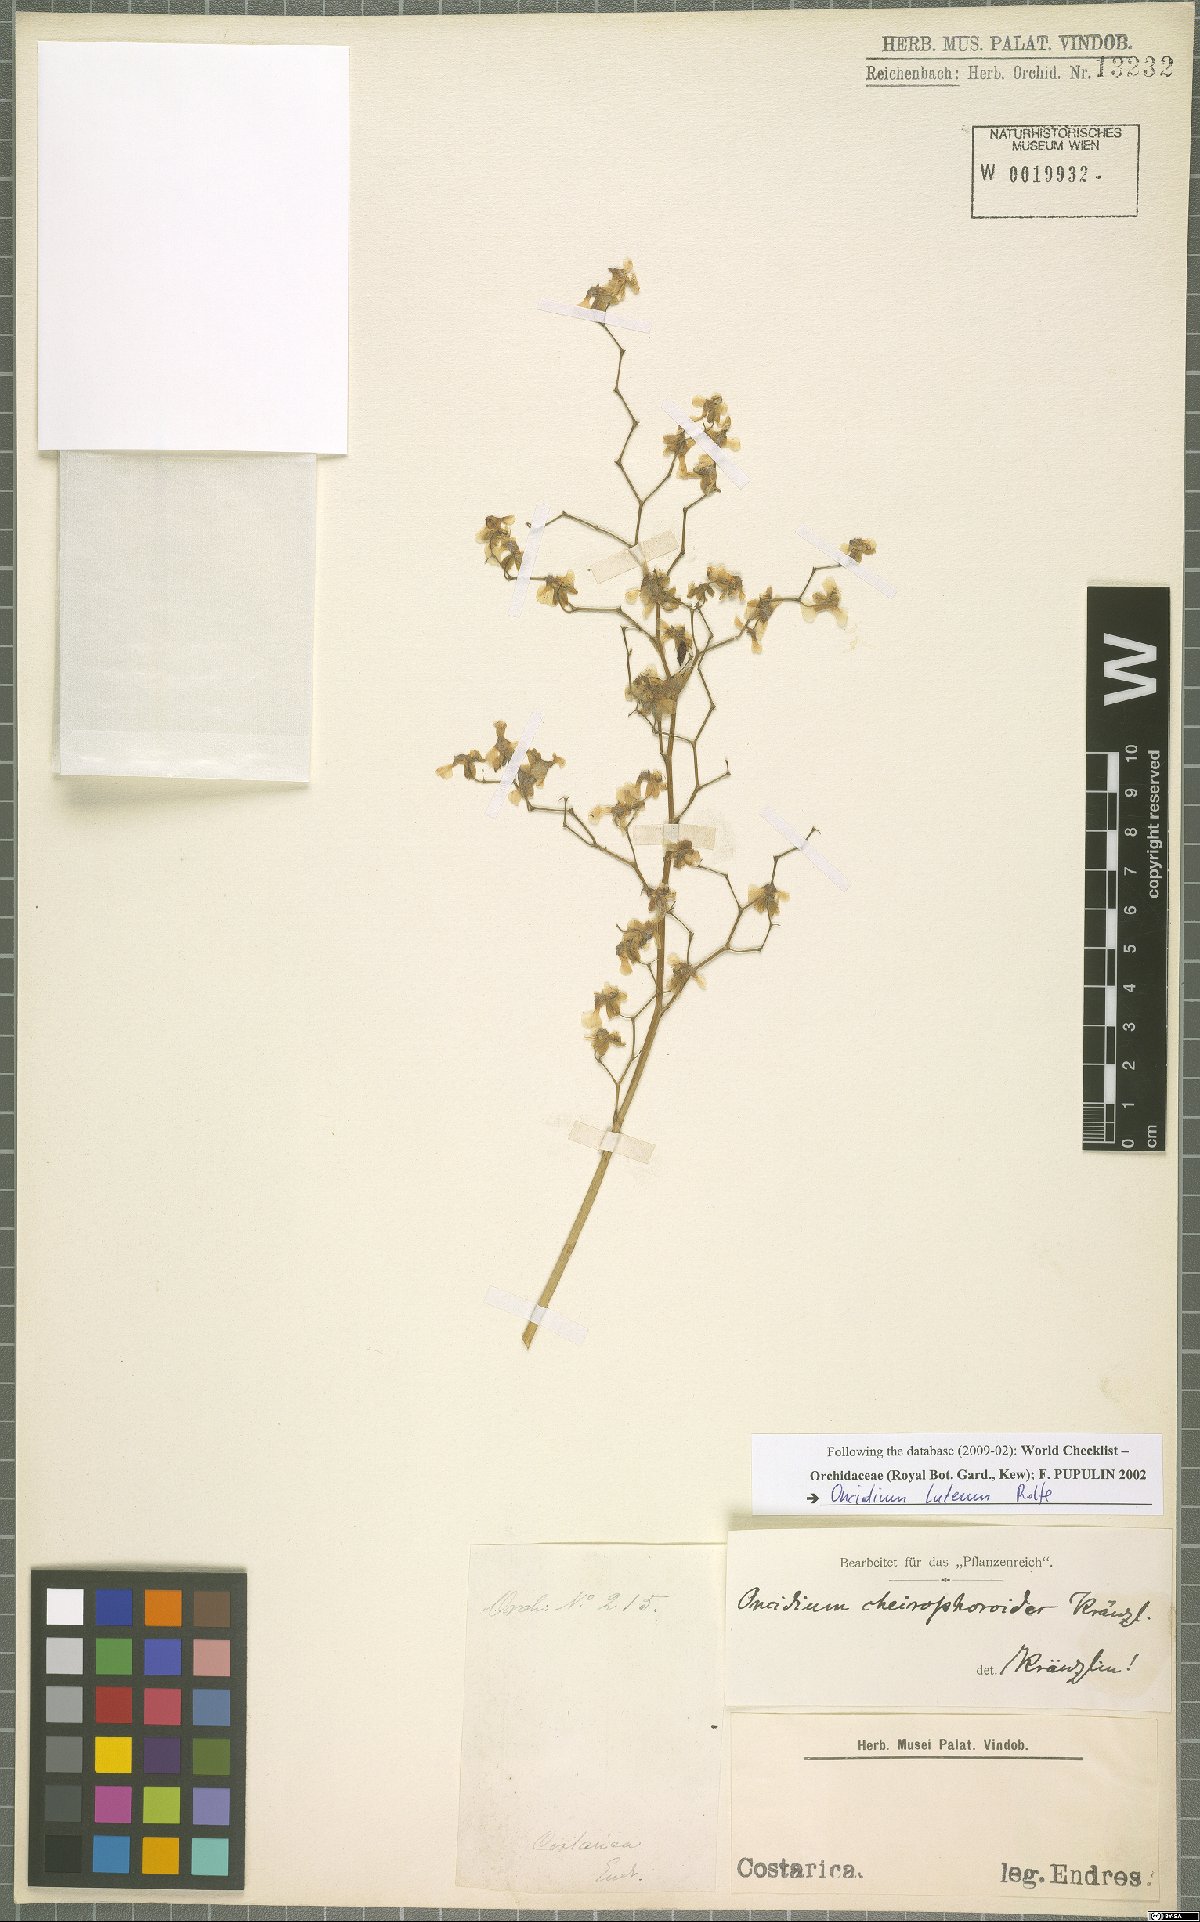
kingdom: Plantae
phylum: Tracheophyta
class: Liliopsida
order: Asparagales
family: Orchidaceae
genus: Oncidium
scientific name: Oncidium luteum
